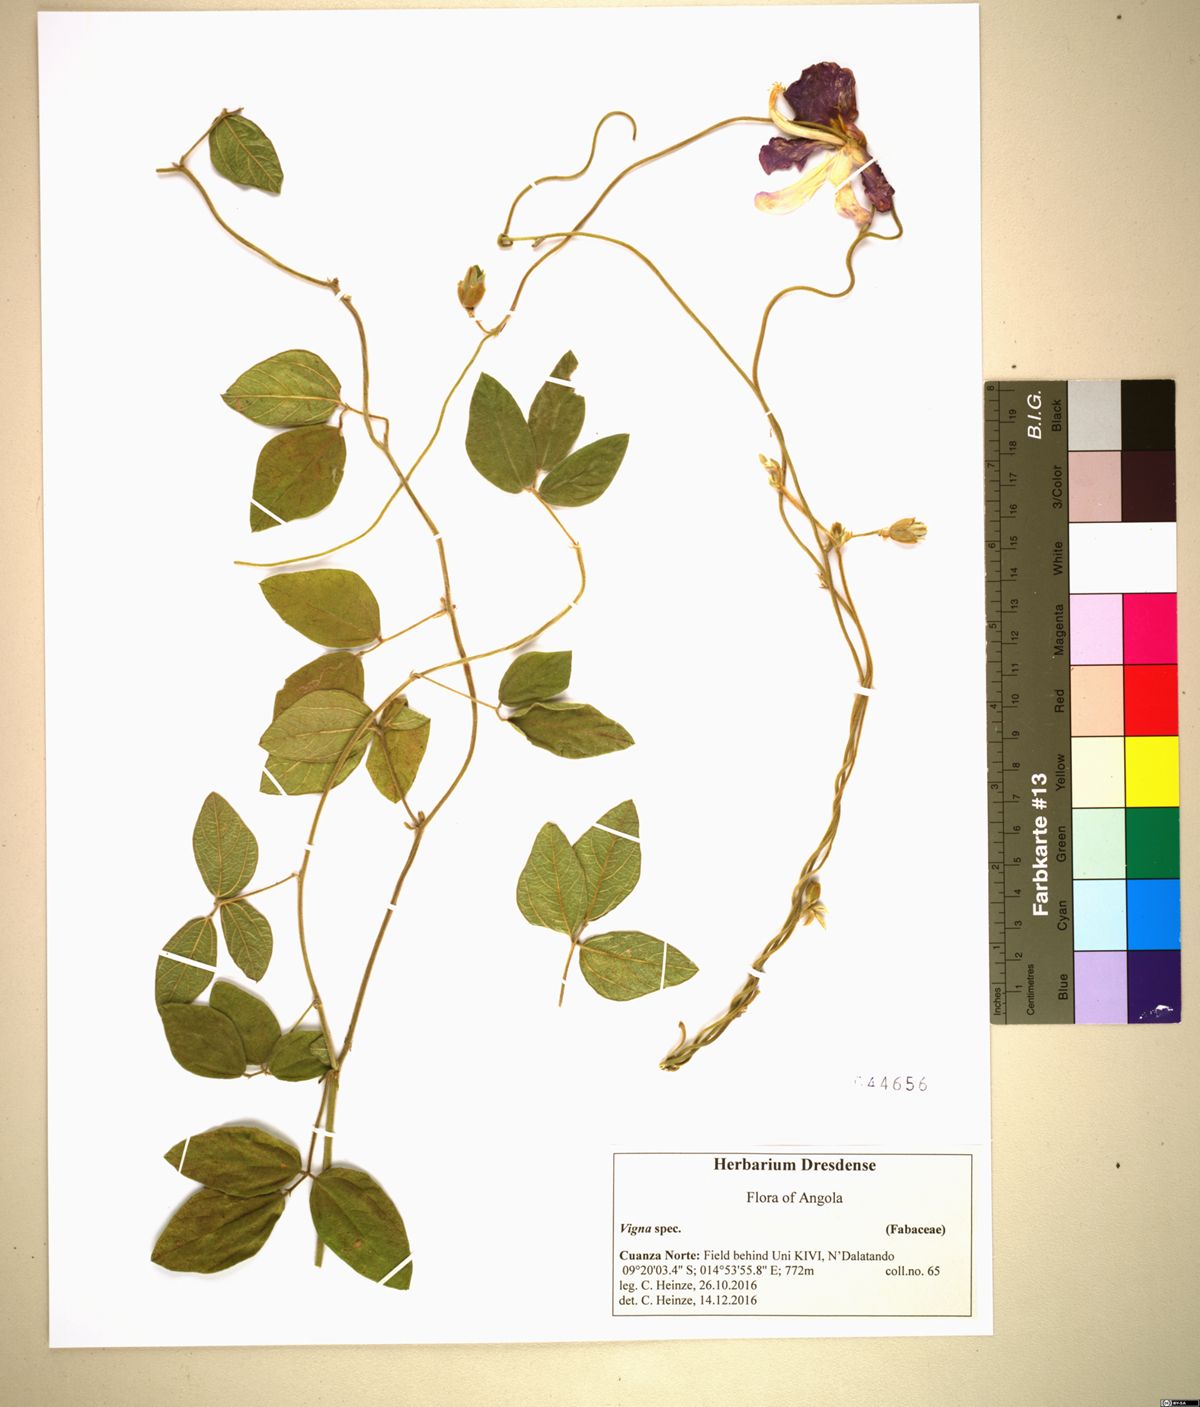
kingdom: Plantae
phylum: Tracheophyta
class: Magnoliopsida
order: Fabales
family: Fabaceae
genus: Vigna
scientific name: Vigna
